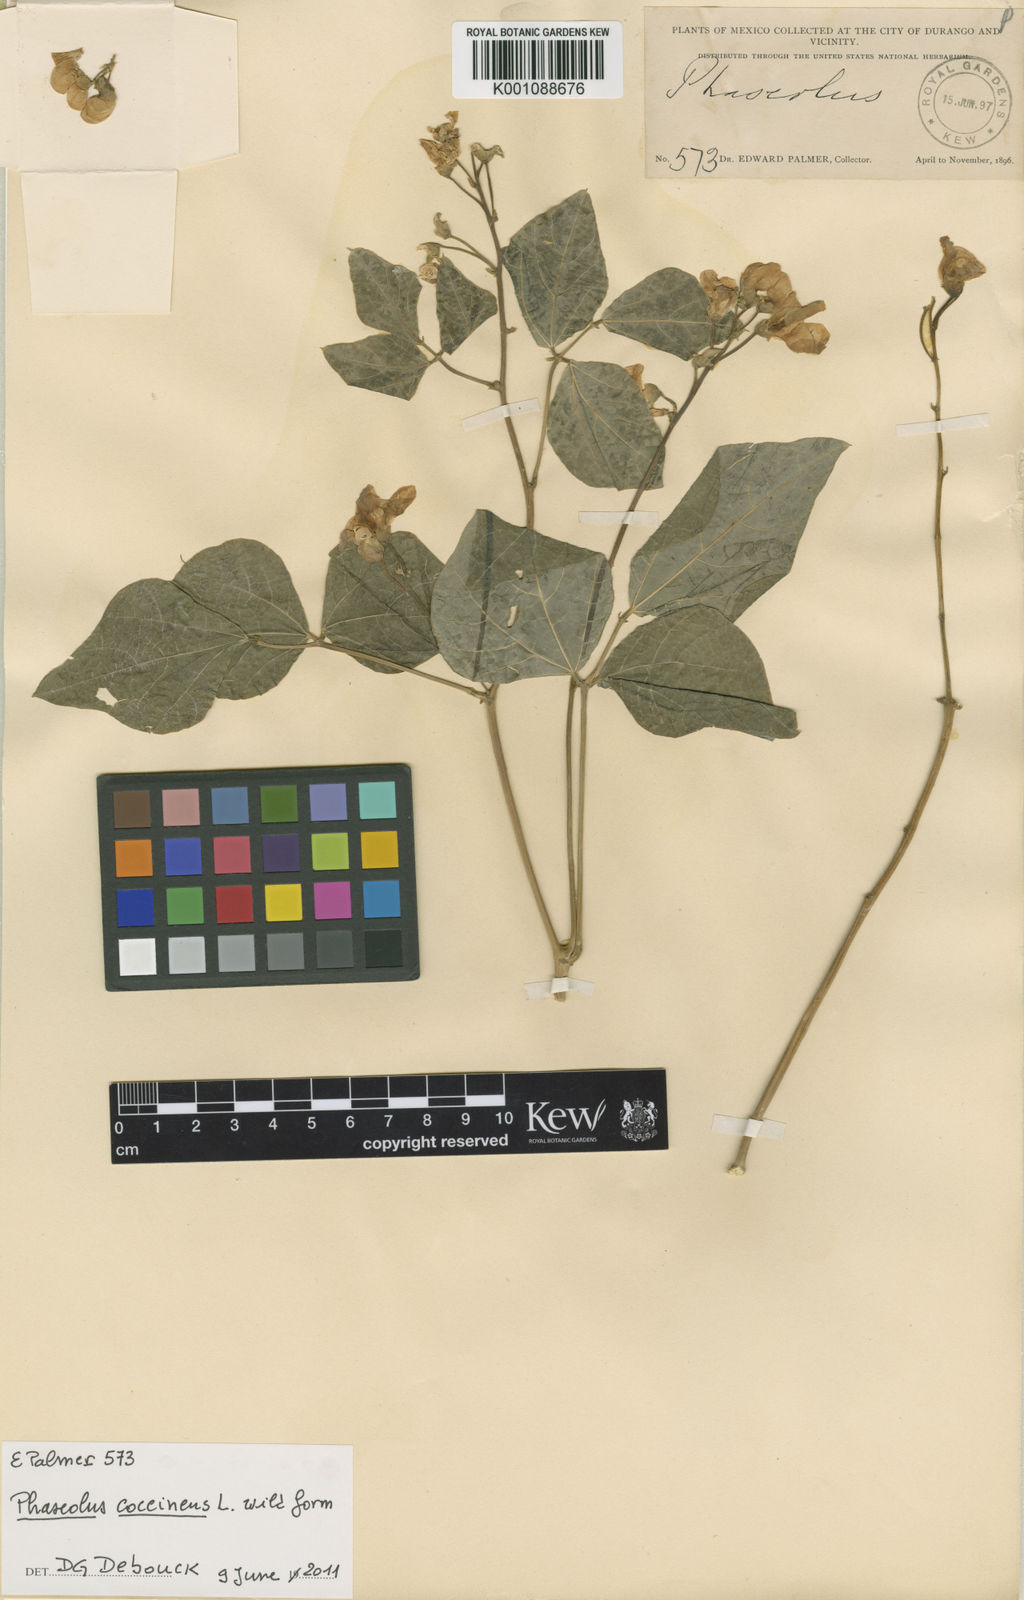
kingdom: Plantae
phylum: Tracheophyta
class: Magnoliopsida
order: Fabales
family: Fabaceae
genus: Phaseolus
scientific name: Phaseolus coccineus
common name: Runner bean
